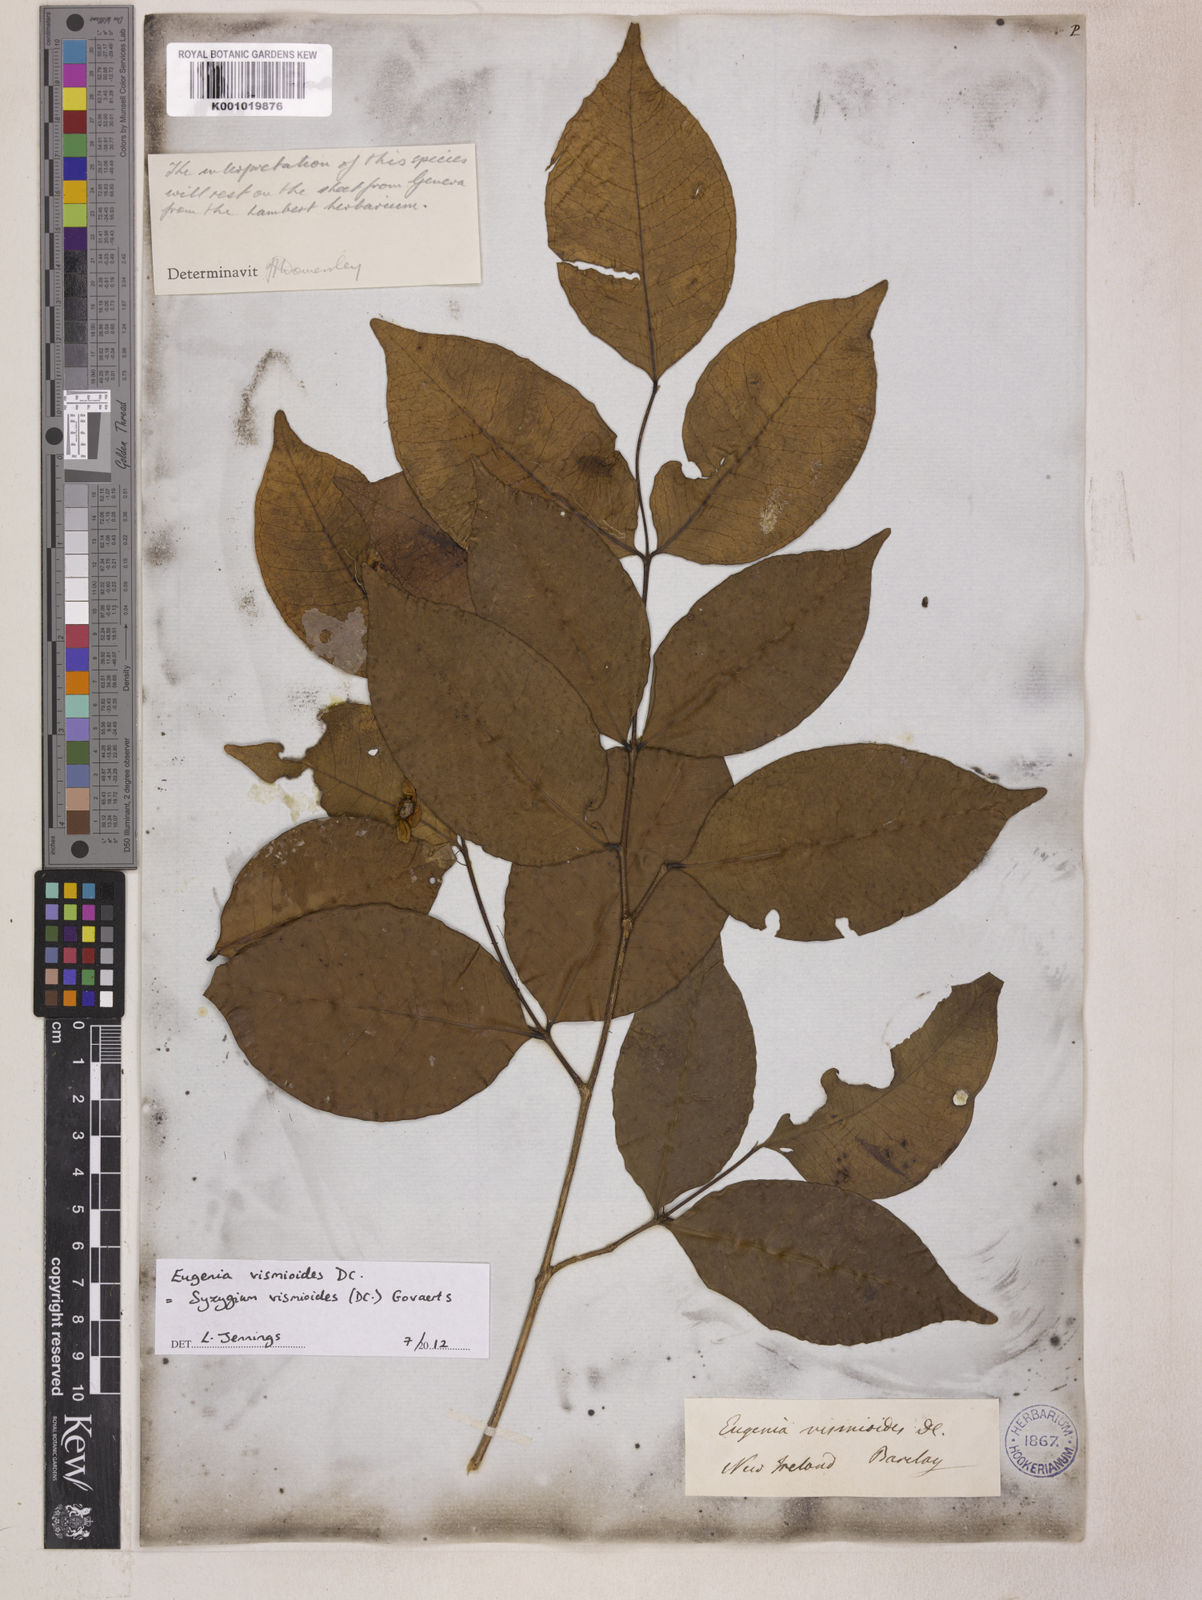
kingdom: Plantae
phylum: Tracheophyta
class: Magnoliopsida
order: Myrtales
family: Myrtaceae
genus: Syzygium
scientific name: Syzygium vismioides
